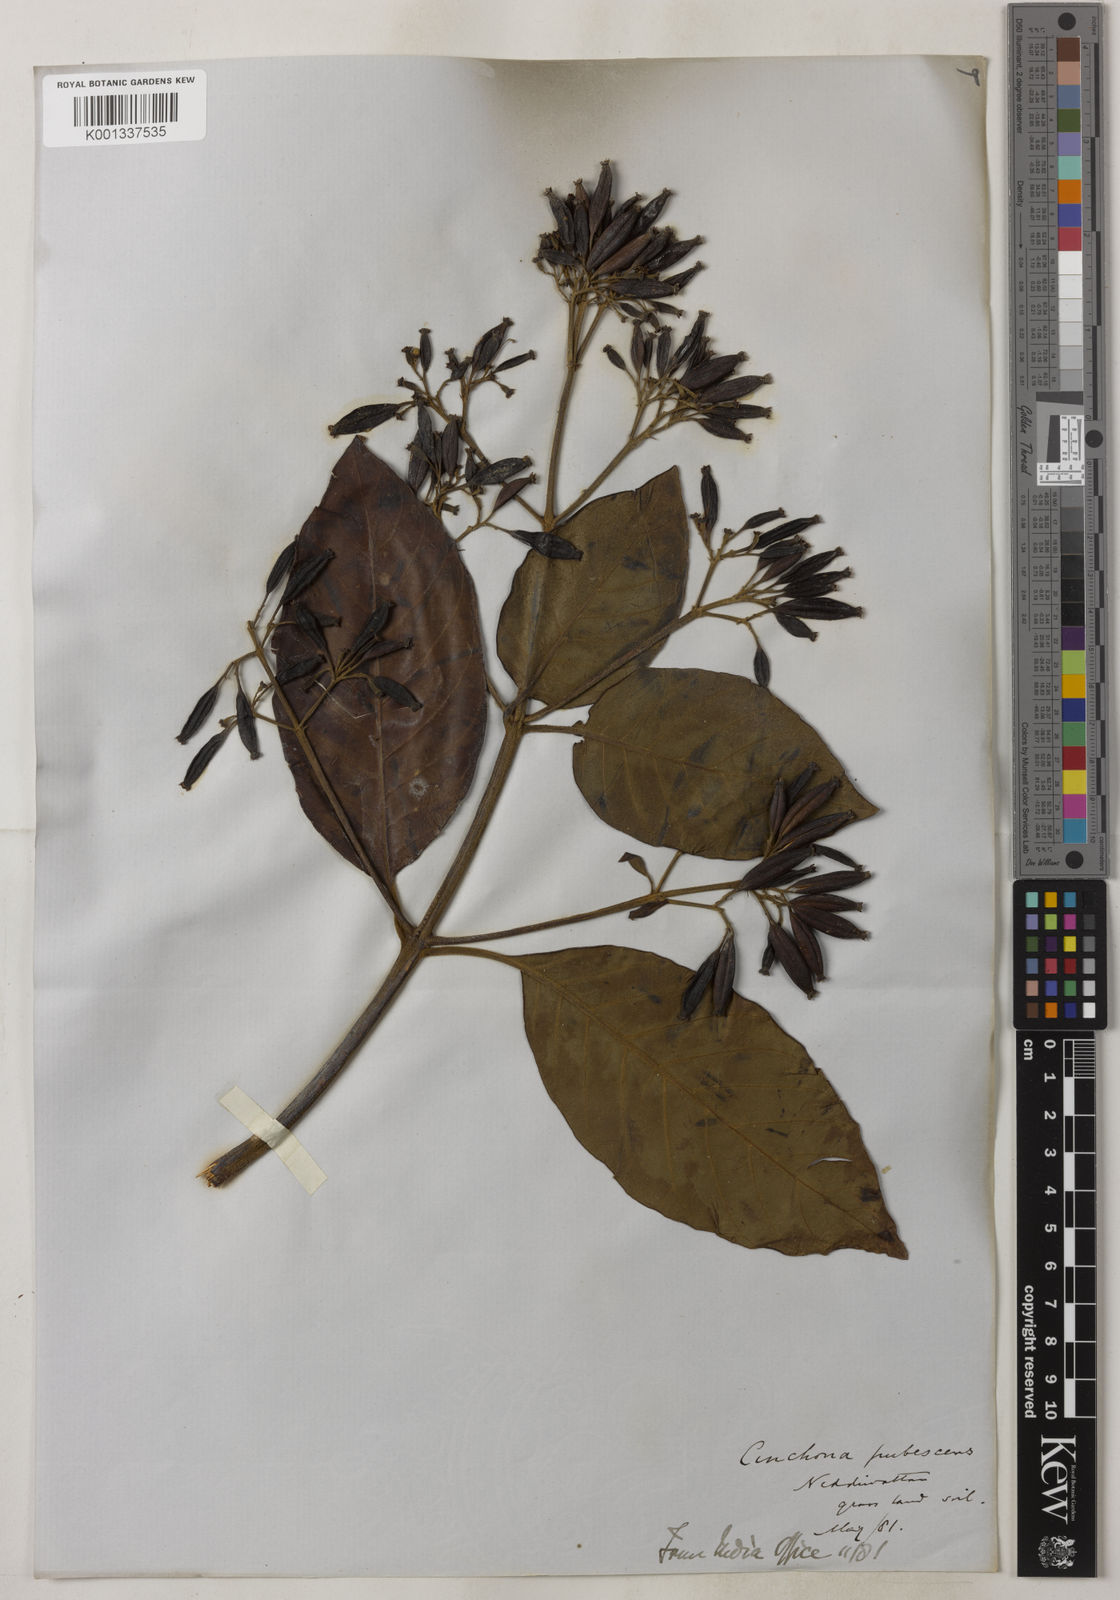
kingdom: Plantae
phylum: Tracheophyta
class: Magnoliopsida
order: Gentianales
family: Rubiaceae
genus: Cinchona
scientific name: Cinchona calisaya
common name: Ledgerbark
